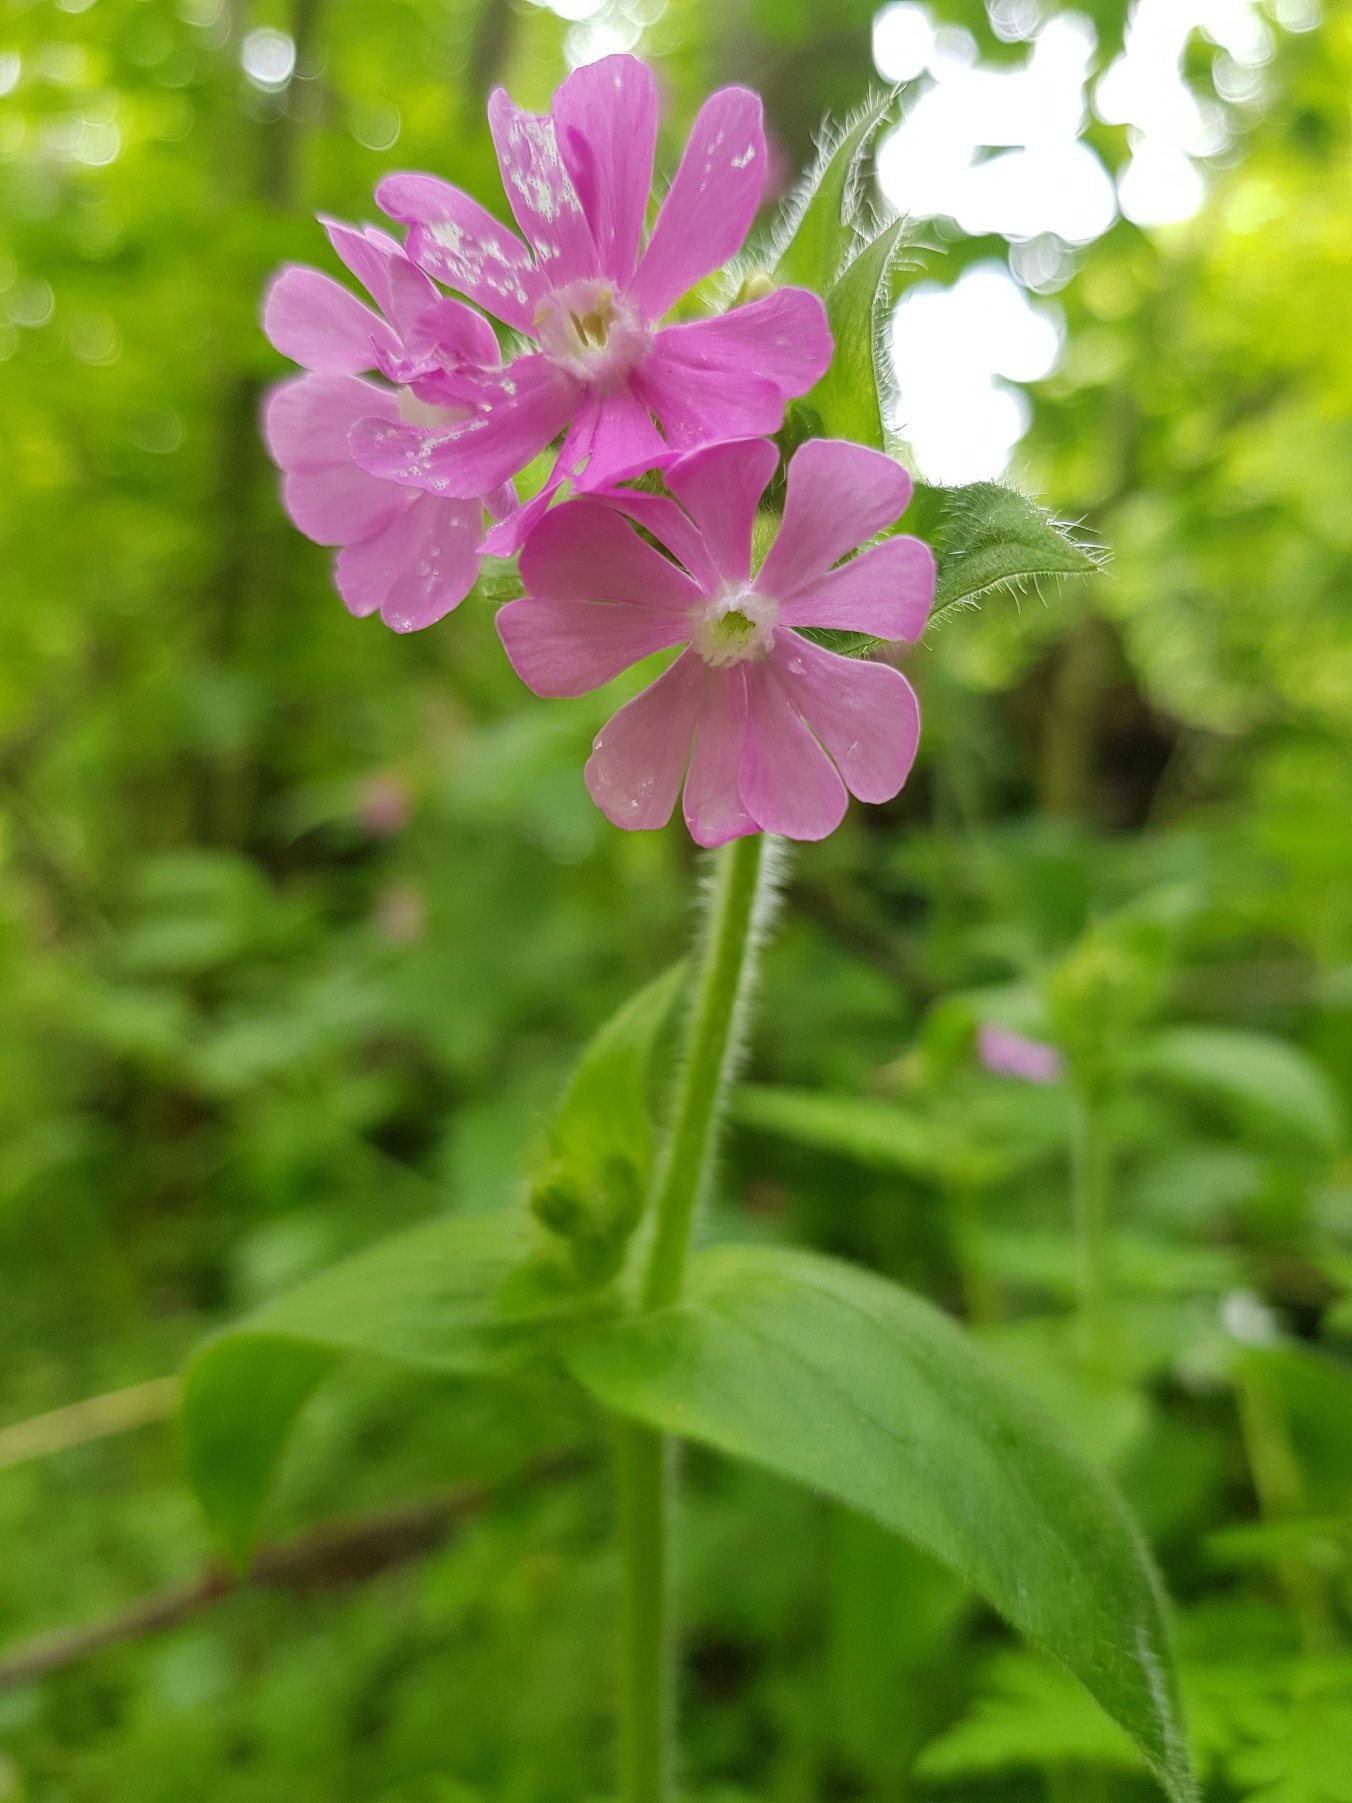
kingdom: Plantae
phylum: Tracheophyta
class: Magnoliopsida
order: Caryophyllales
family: Caryophyllaceae
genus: Silene
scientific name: Silene dioica
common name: Dagpragtstjerne
